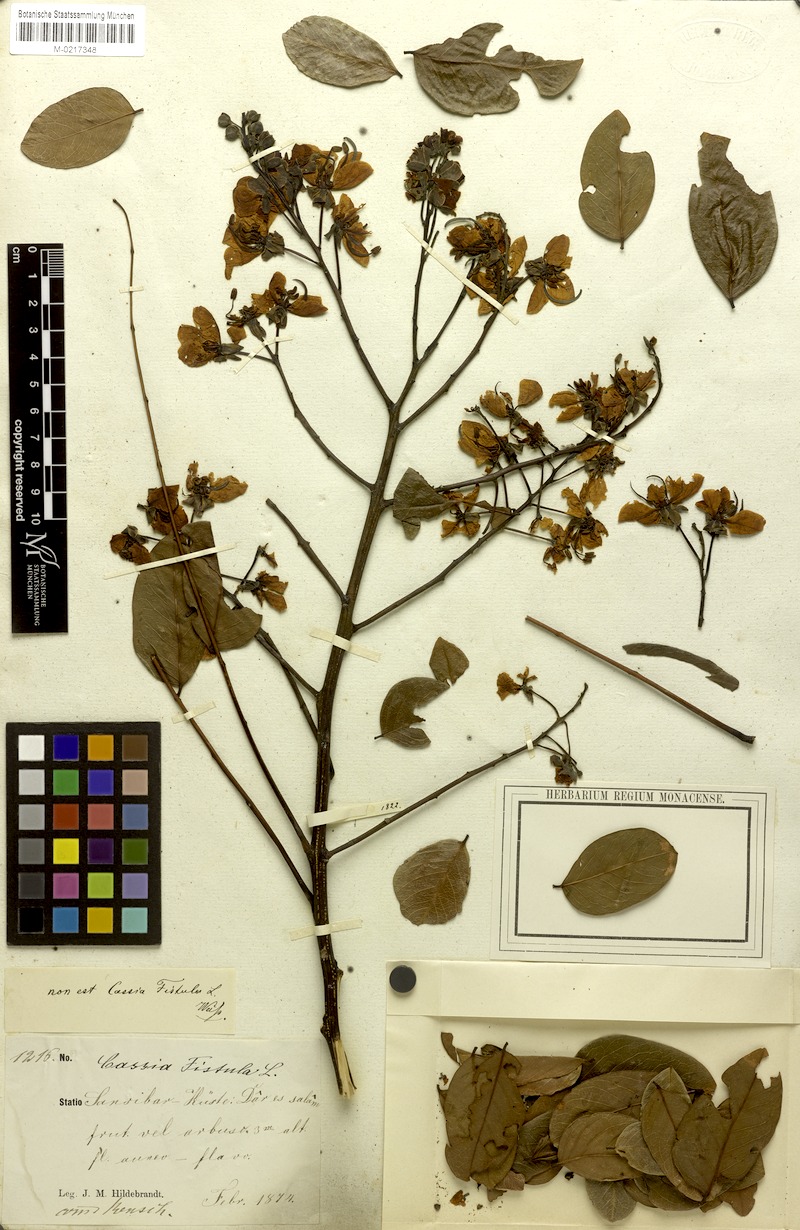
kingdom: Plantae
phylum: Tracheophyta
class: Magnoliopsida
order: Fabales
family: Fabaceae
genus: Cassia
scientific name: Cassia afrofistula
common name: Kenyan shower
